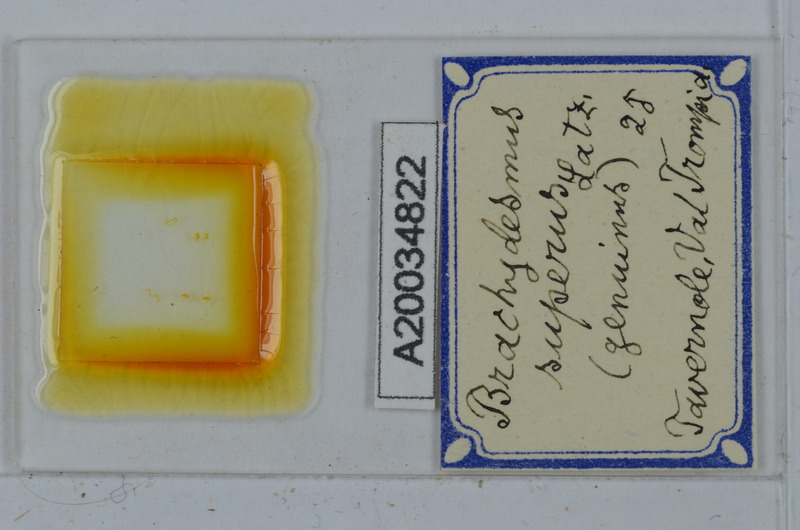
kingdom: Animalia
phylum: Arthropoda
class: Diplopoda
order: Polydesmida
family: Polydesmidae
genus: Brachydesmus
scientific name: Brachydesmus superus
